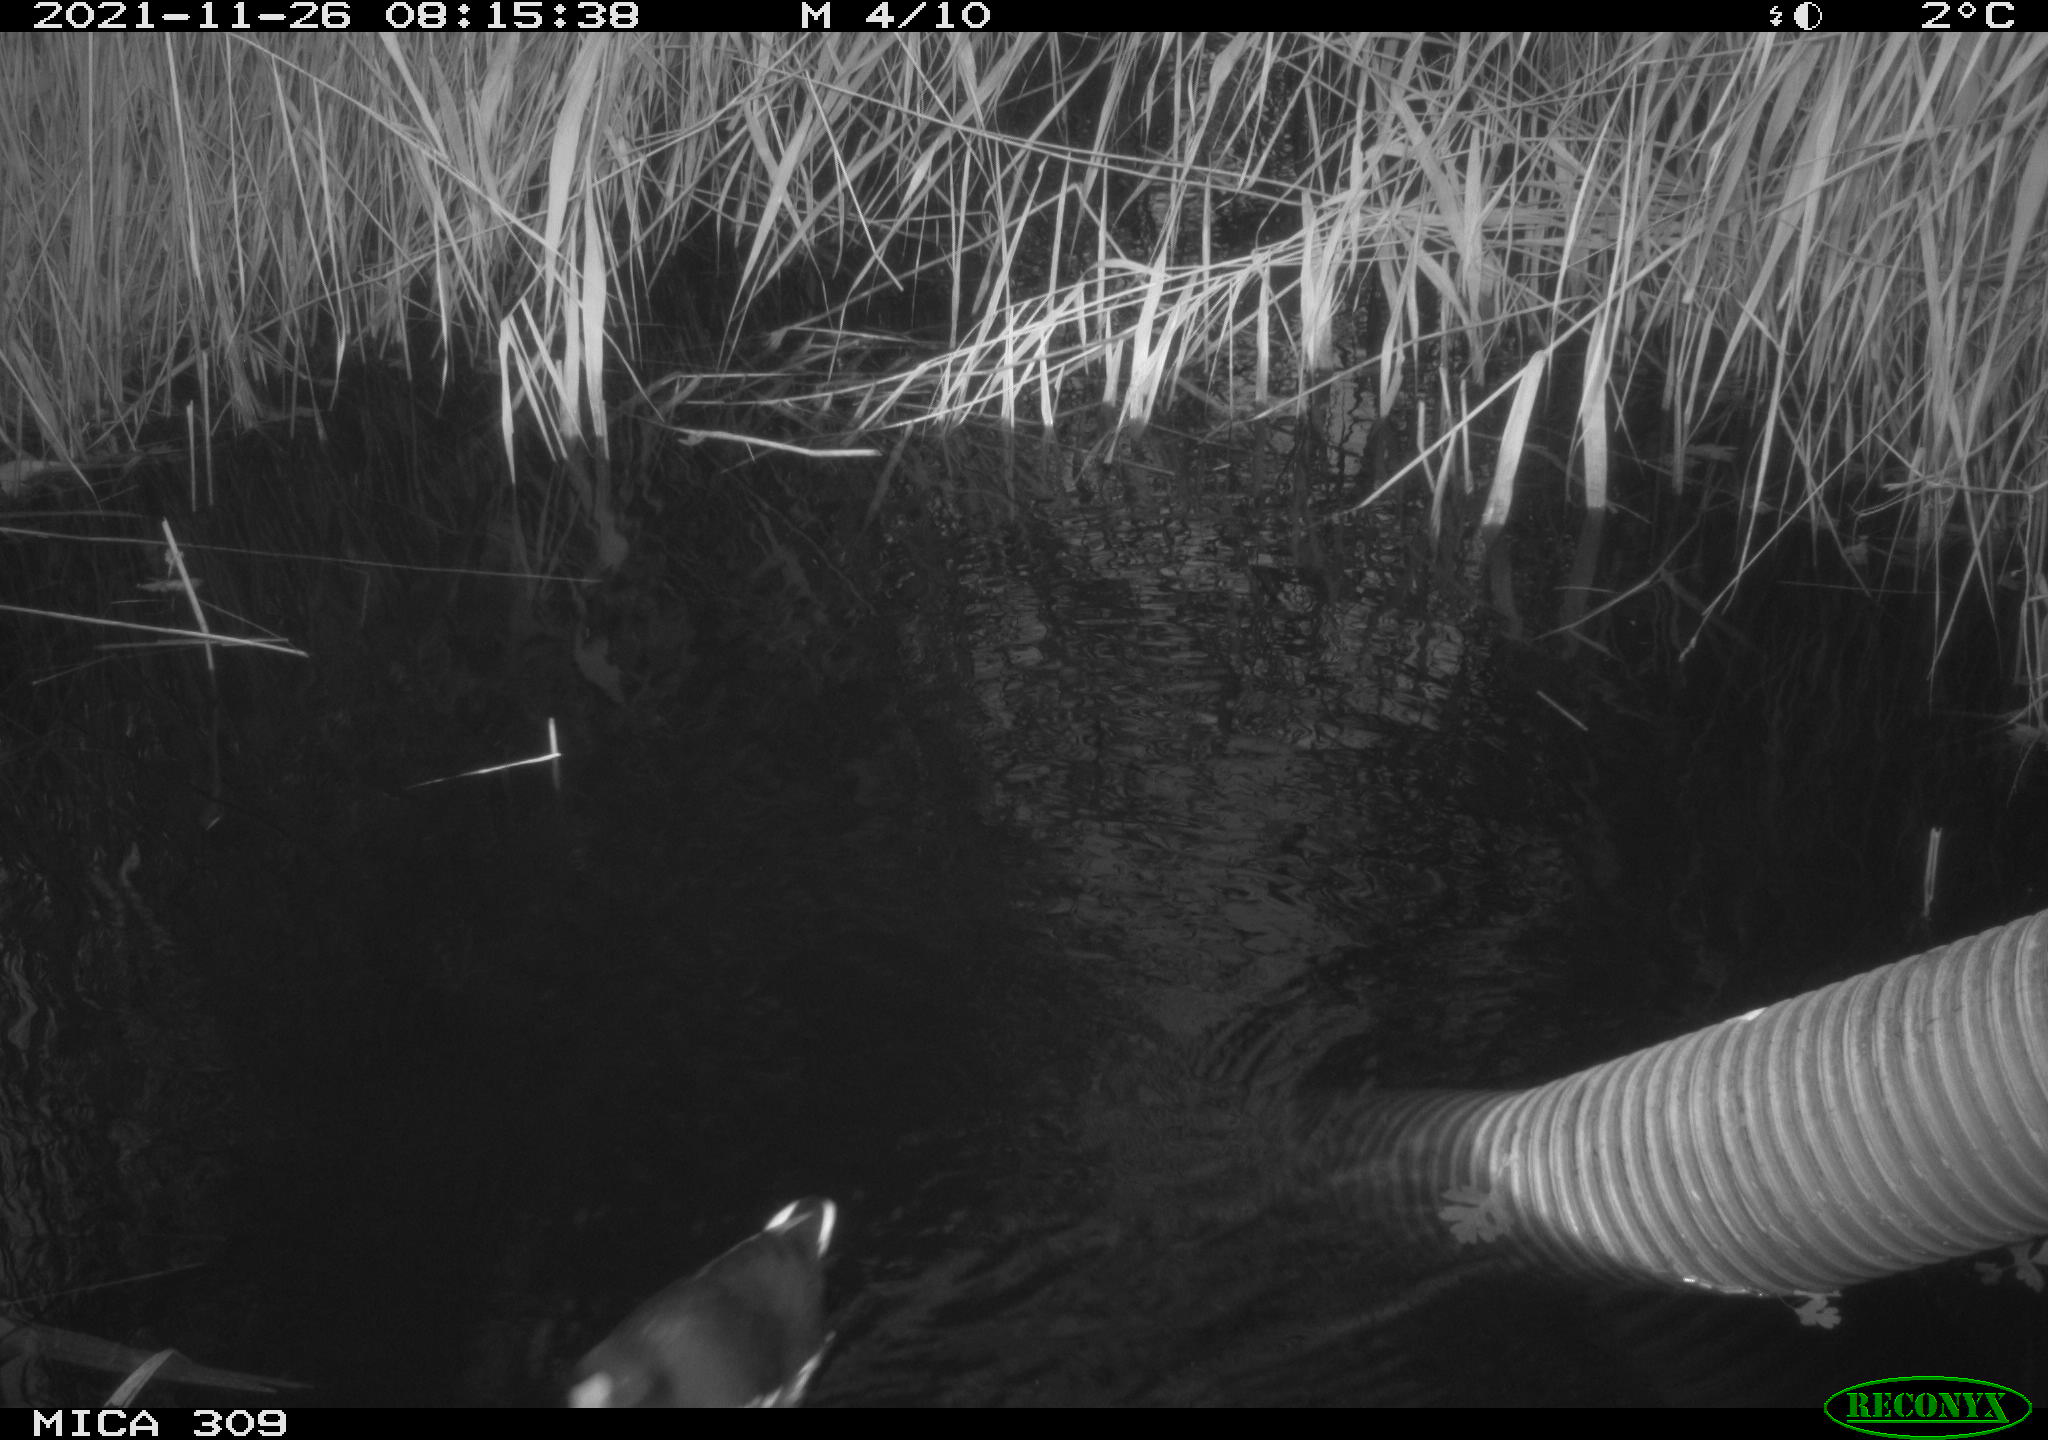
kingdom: Animalia
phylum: Chordata
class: Aves
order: Gruiformes
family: Rallidae
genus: Gallinula
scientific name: Gallinula chloropus
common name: Common moorhen
